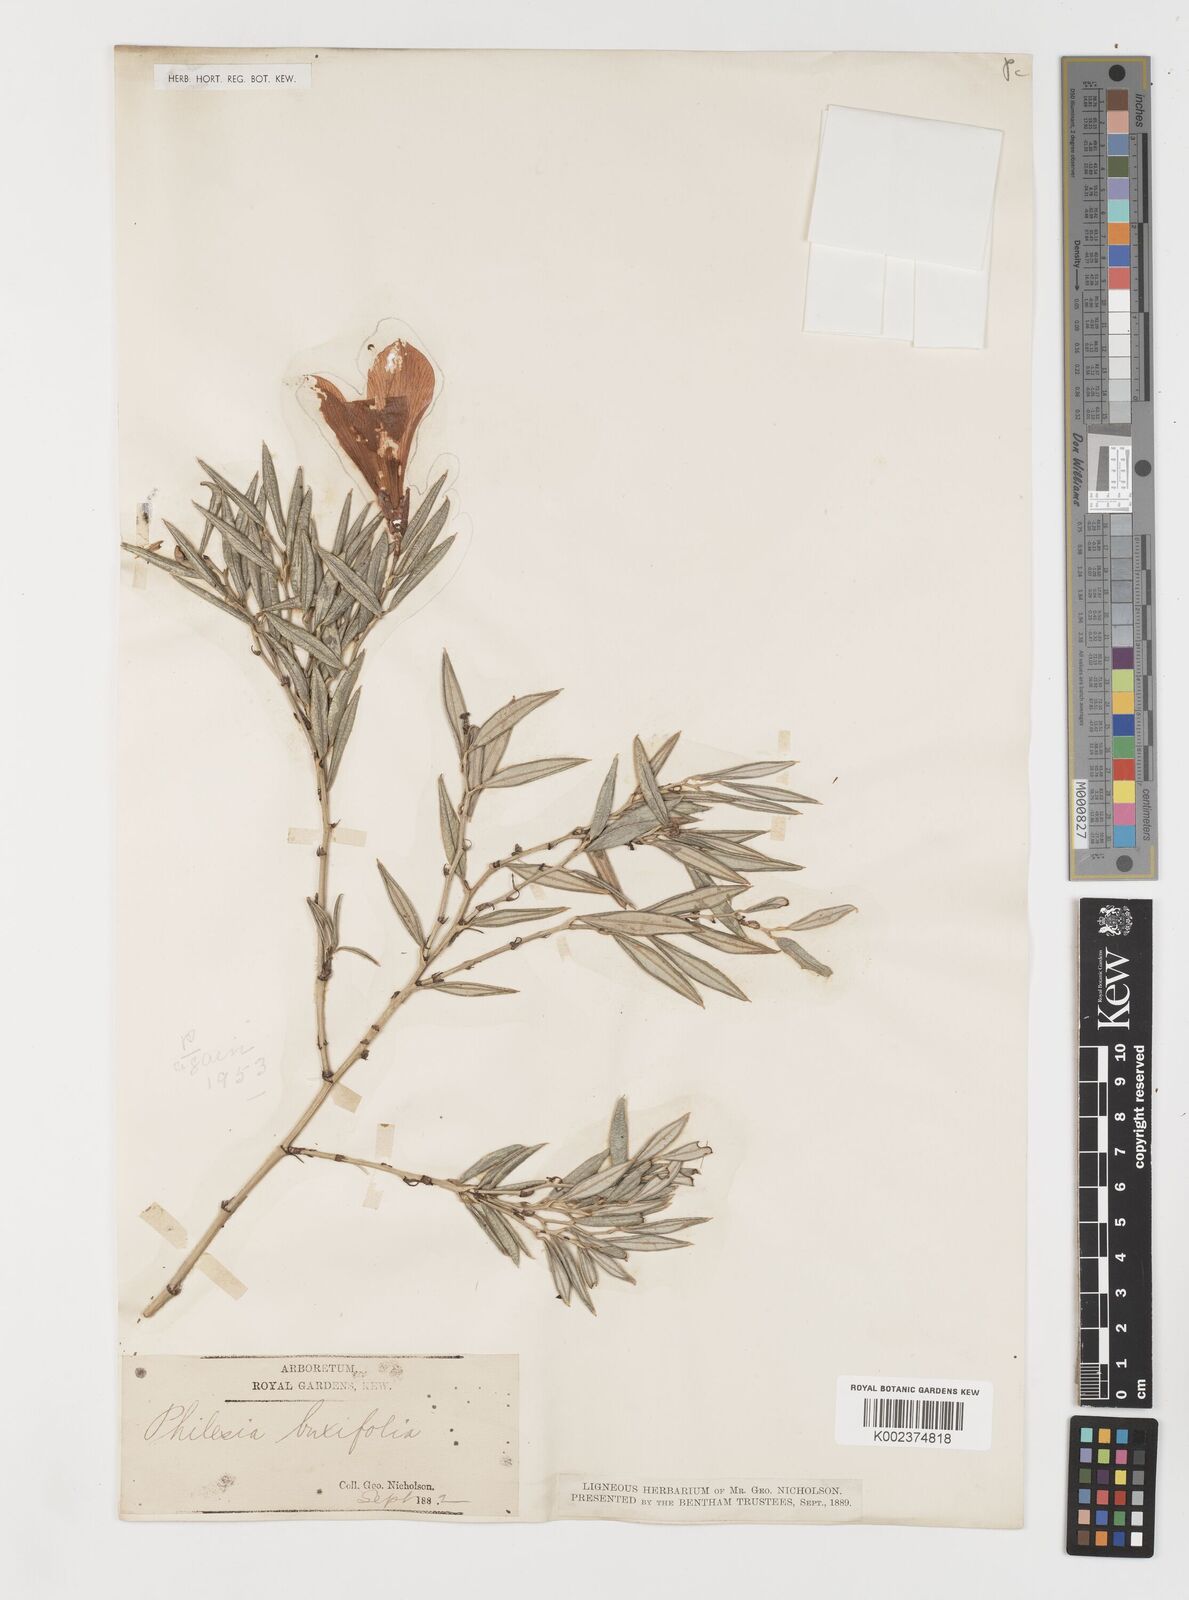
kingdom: Plantae
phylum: Tracheophyta
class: Liliopsida
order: Liliales
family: Philesiaceae
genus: Philesia
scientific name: Philesia magellanica
